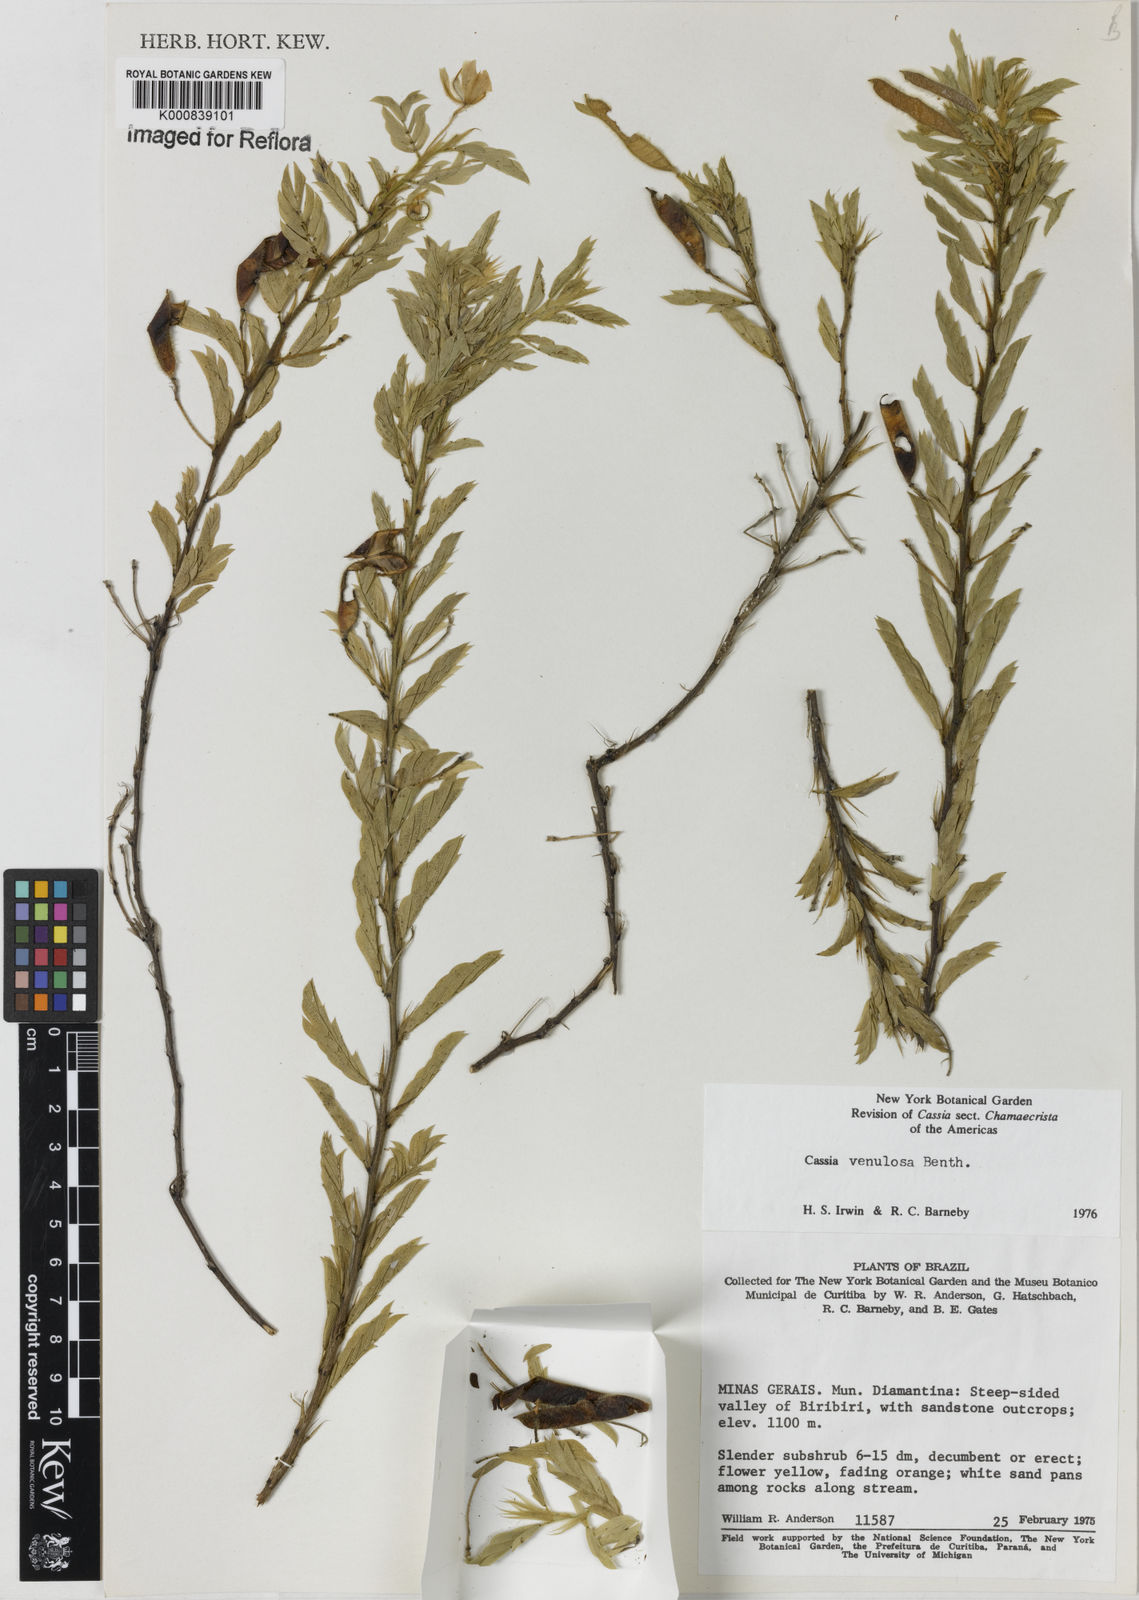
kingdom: Plantae
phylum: Tracheophyta
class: Magnoliopsida
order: Fabales
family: Fabaceae
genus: Chamaecrista
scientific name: Chamaecrista venulosa
